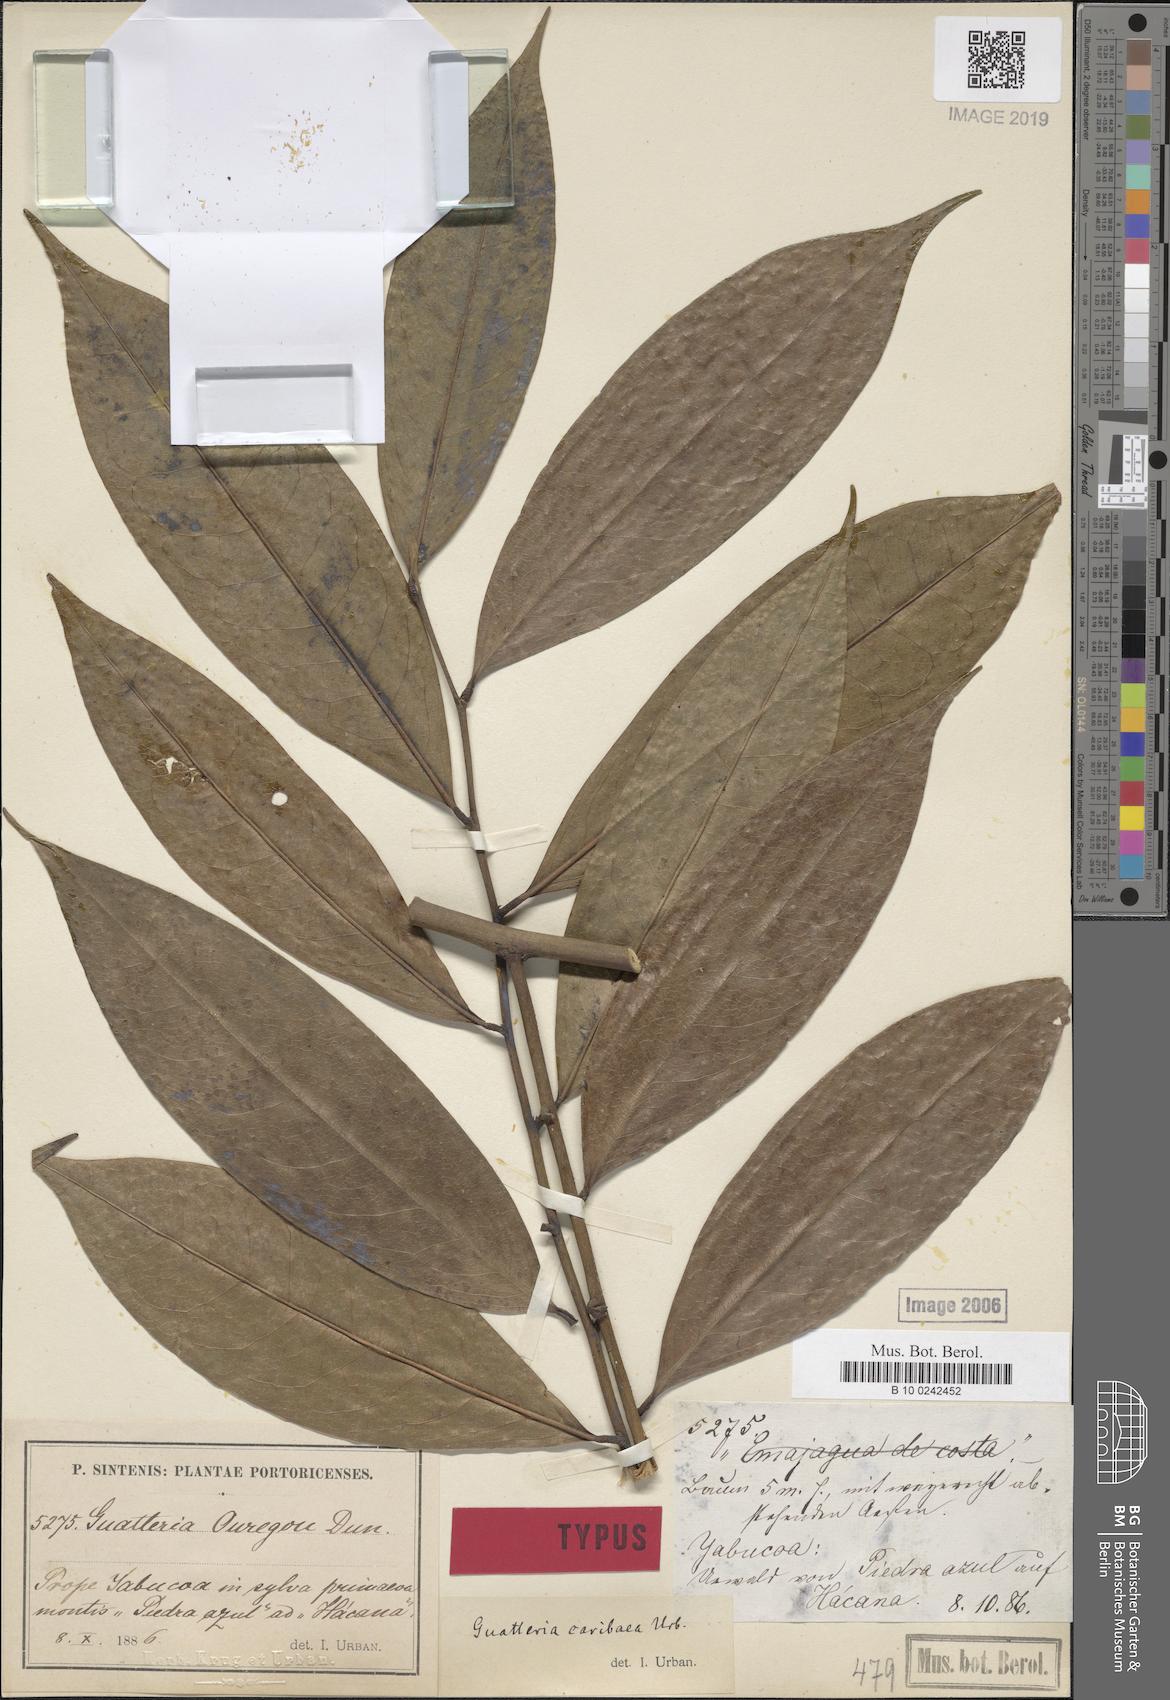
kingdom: Plantae
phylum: Tracheophyta
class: Magnoliopsida
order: Magnoliales
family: Annonaceae
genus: Guatteria
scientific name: Guatteria caribaea
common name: Wild soursop
